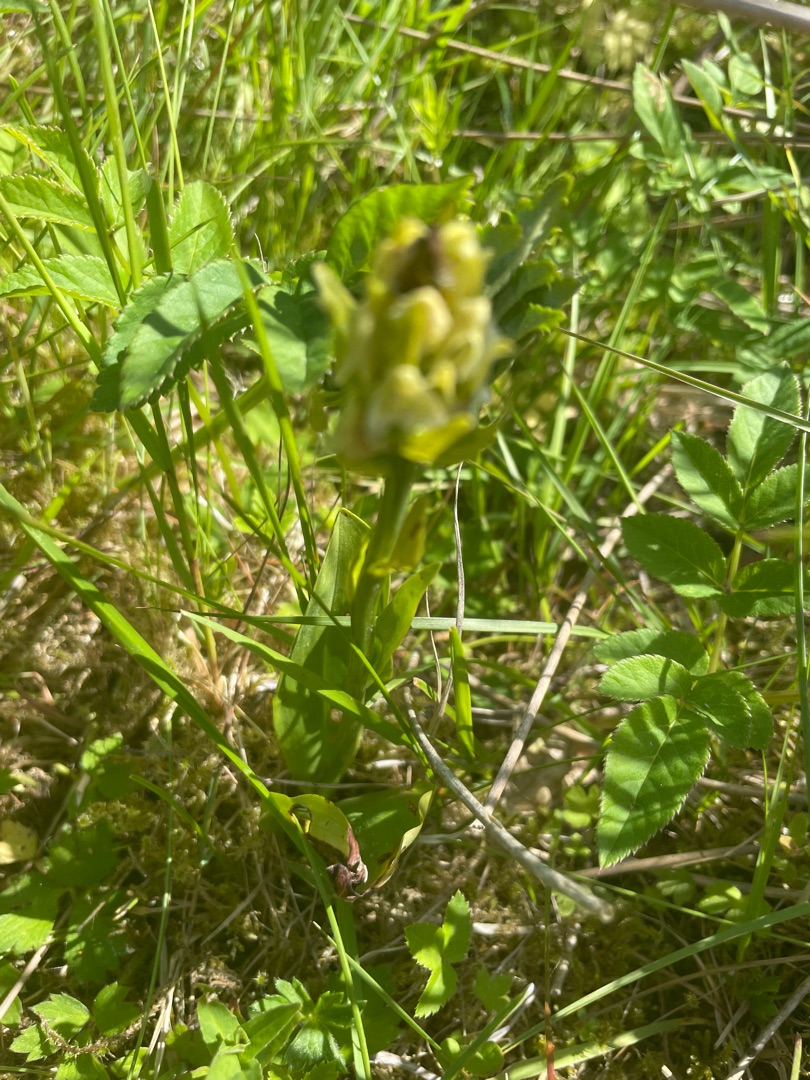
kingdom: Plantae
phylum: Tracheophyta
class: Liliopsida
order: Asparagales
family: Orchidaceae
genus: Platanthera
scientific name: Platanthera chlorantha
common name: Skov-gøgelilje
